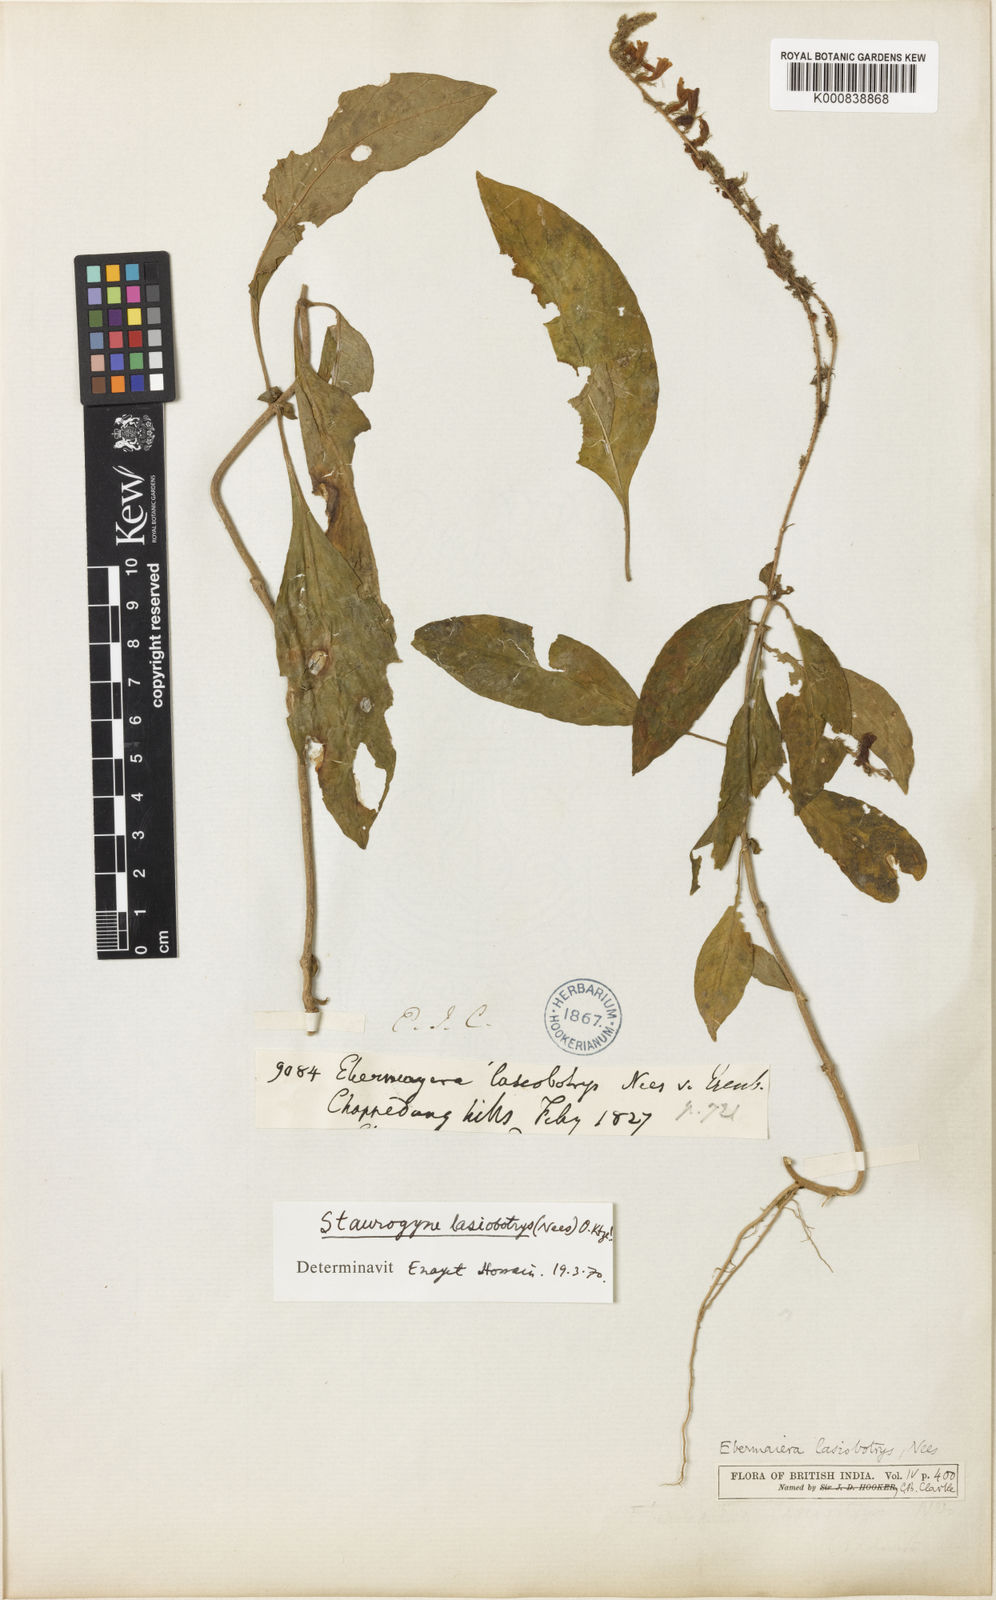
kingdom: Plantae
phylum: Tracheophyta
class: Magnoliopsida
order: Lamiales
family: Acanthaceae
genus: Staurogyne
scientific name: Staurogyne lasiobotrys
